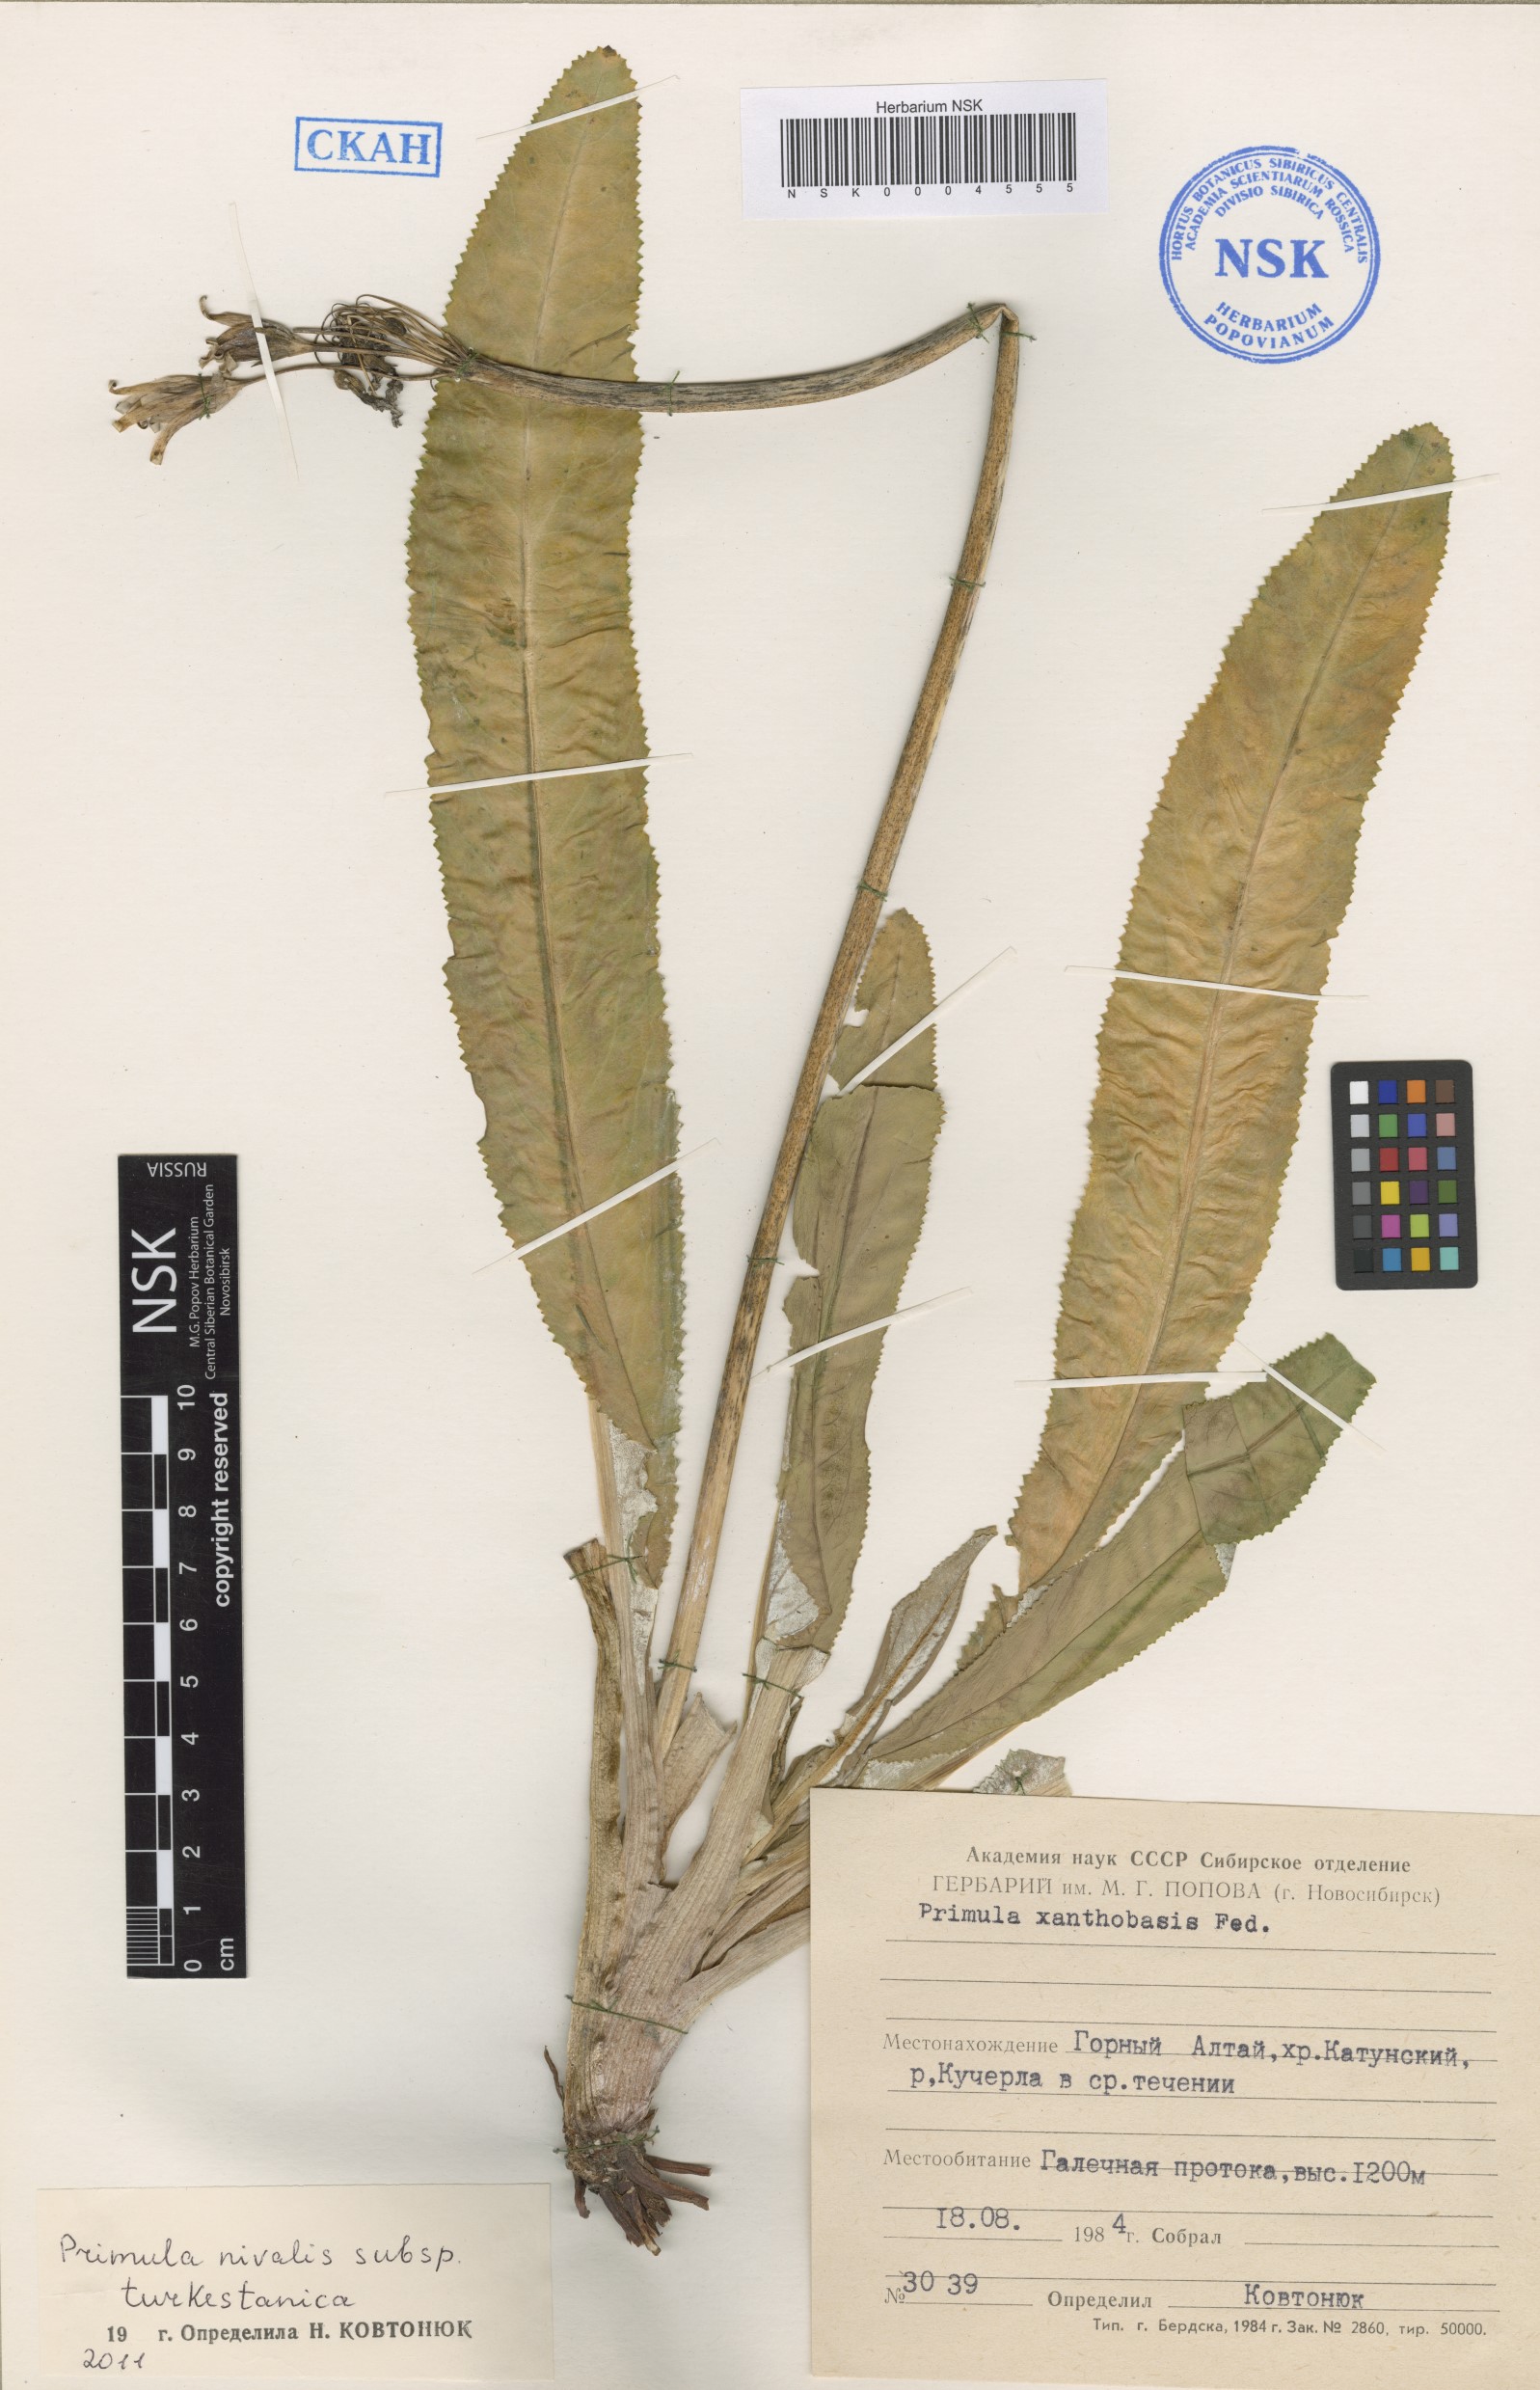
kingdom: Plantae
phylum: Tracheophyta
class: Magnoliopsida
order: Ericales
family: Primulaceae
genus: Primula
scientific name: Primula nivalis
